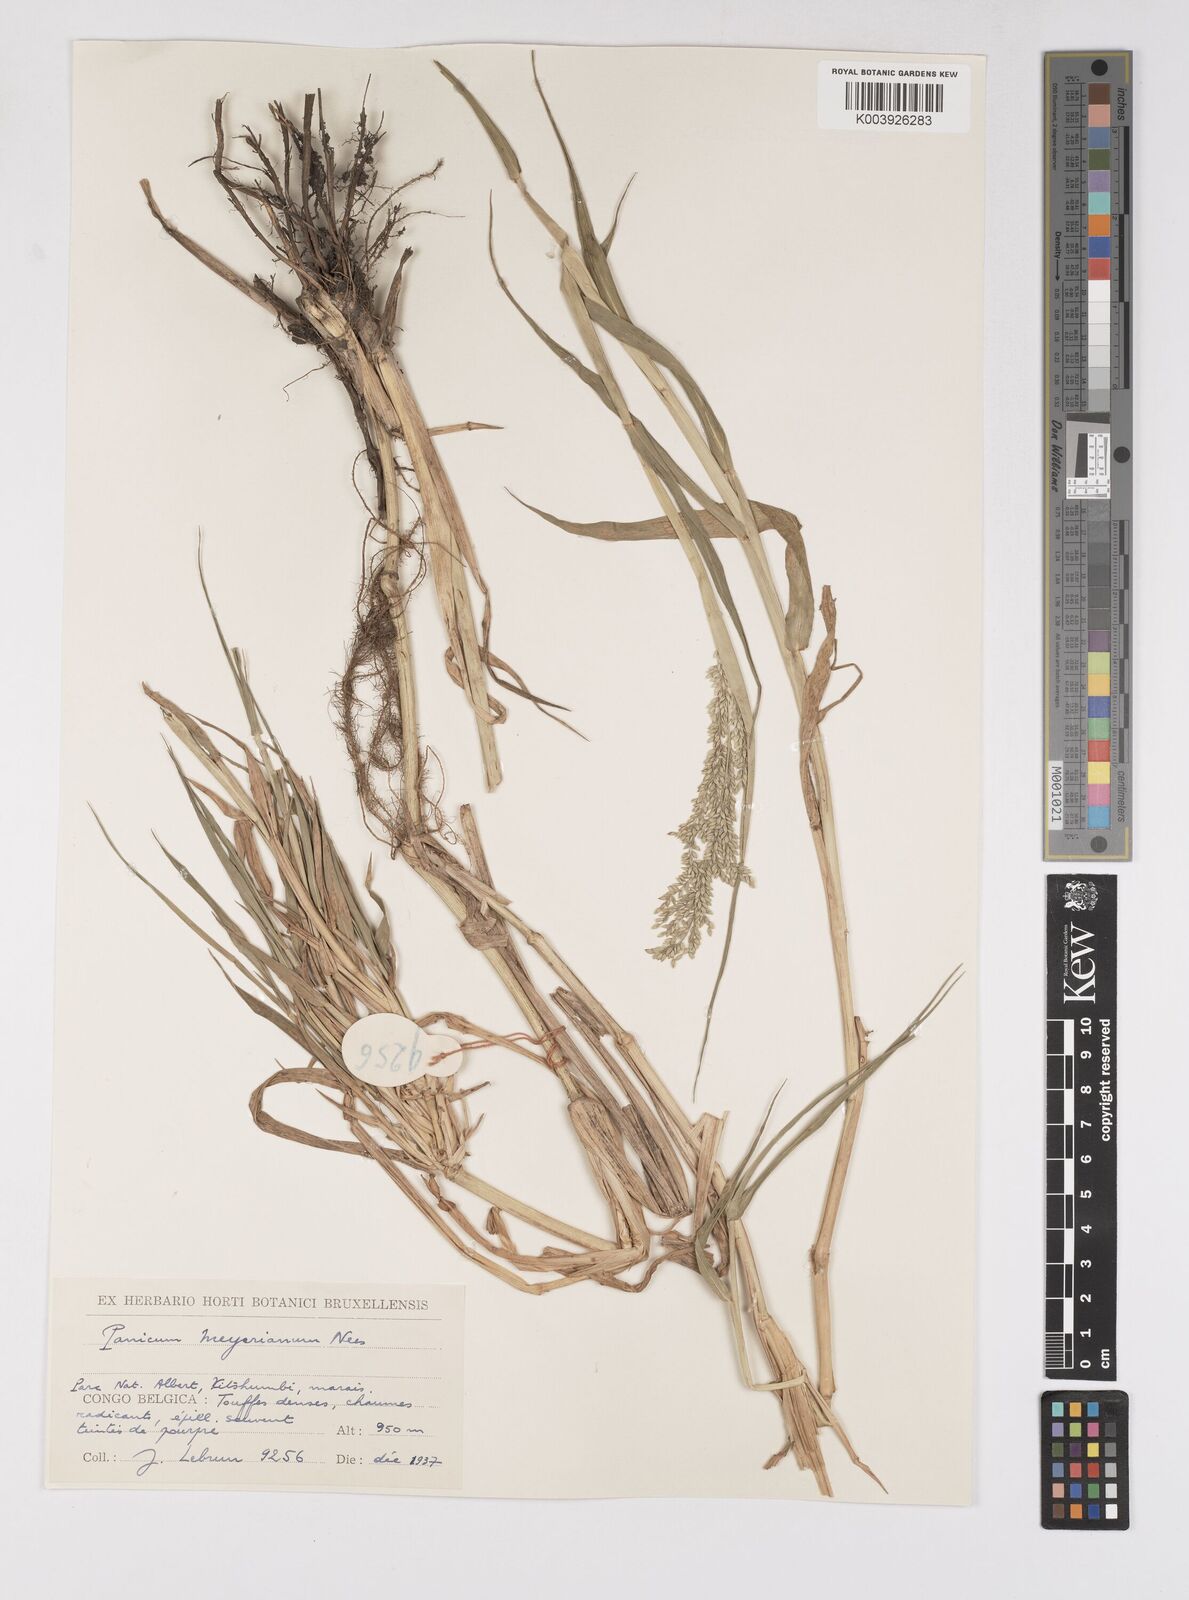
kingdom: Plantae
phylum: Tracheophyta
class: Liliopsida
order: Poales
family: Poaceae
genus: Eriochloa
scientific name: Eriochloa meyeriana
